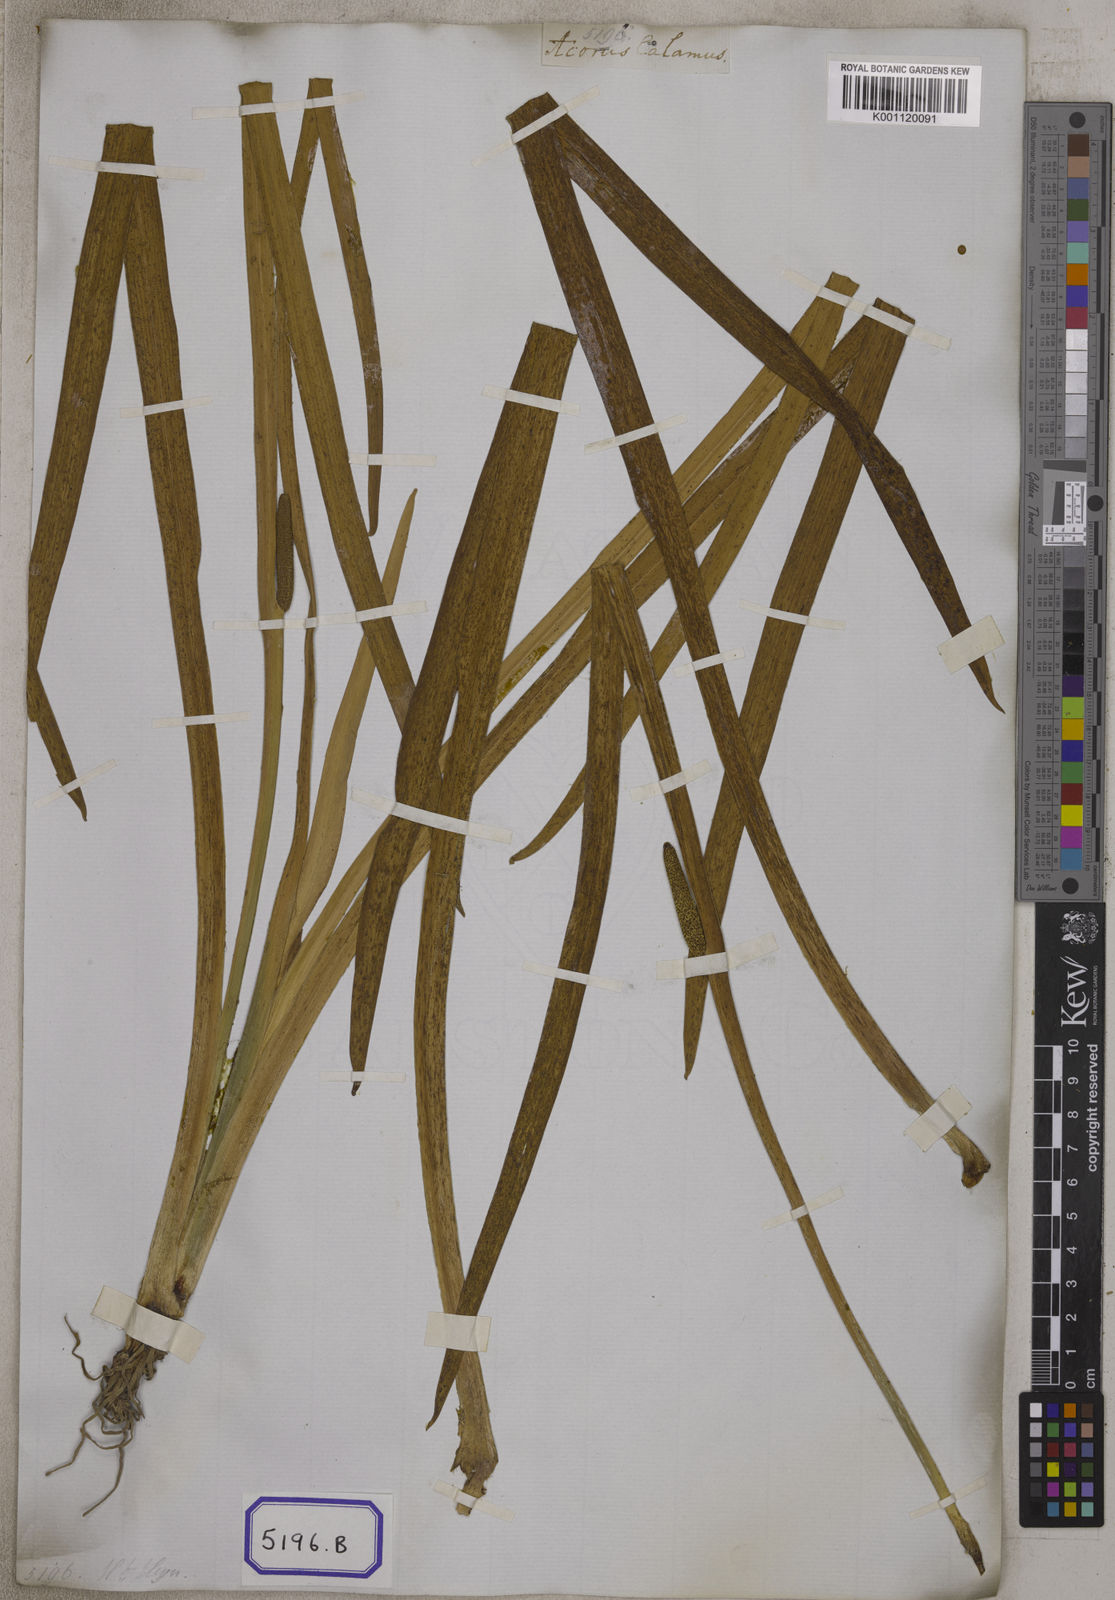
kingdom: Plantae
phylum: Tracheophyta
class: Liliopsida
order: Acorales
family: Acoraceae
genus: Acorus
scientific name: Acorus calamus
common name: Sweet-flag
